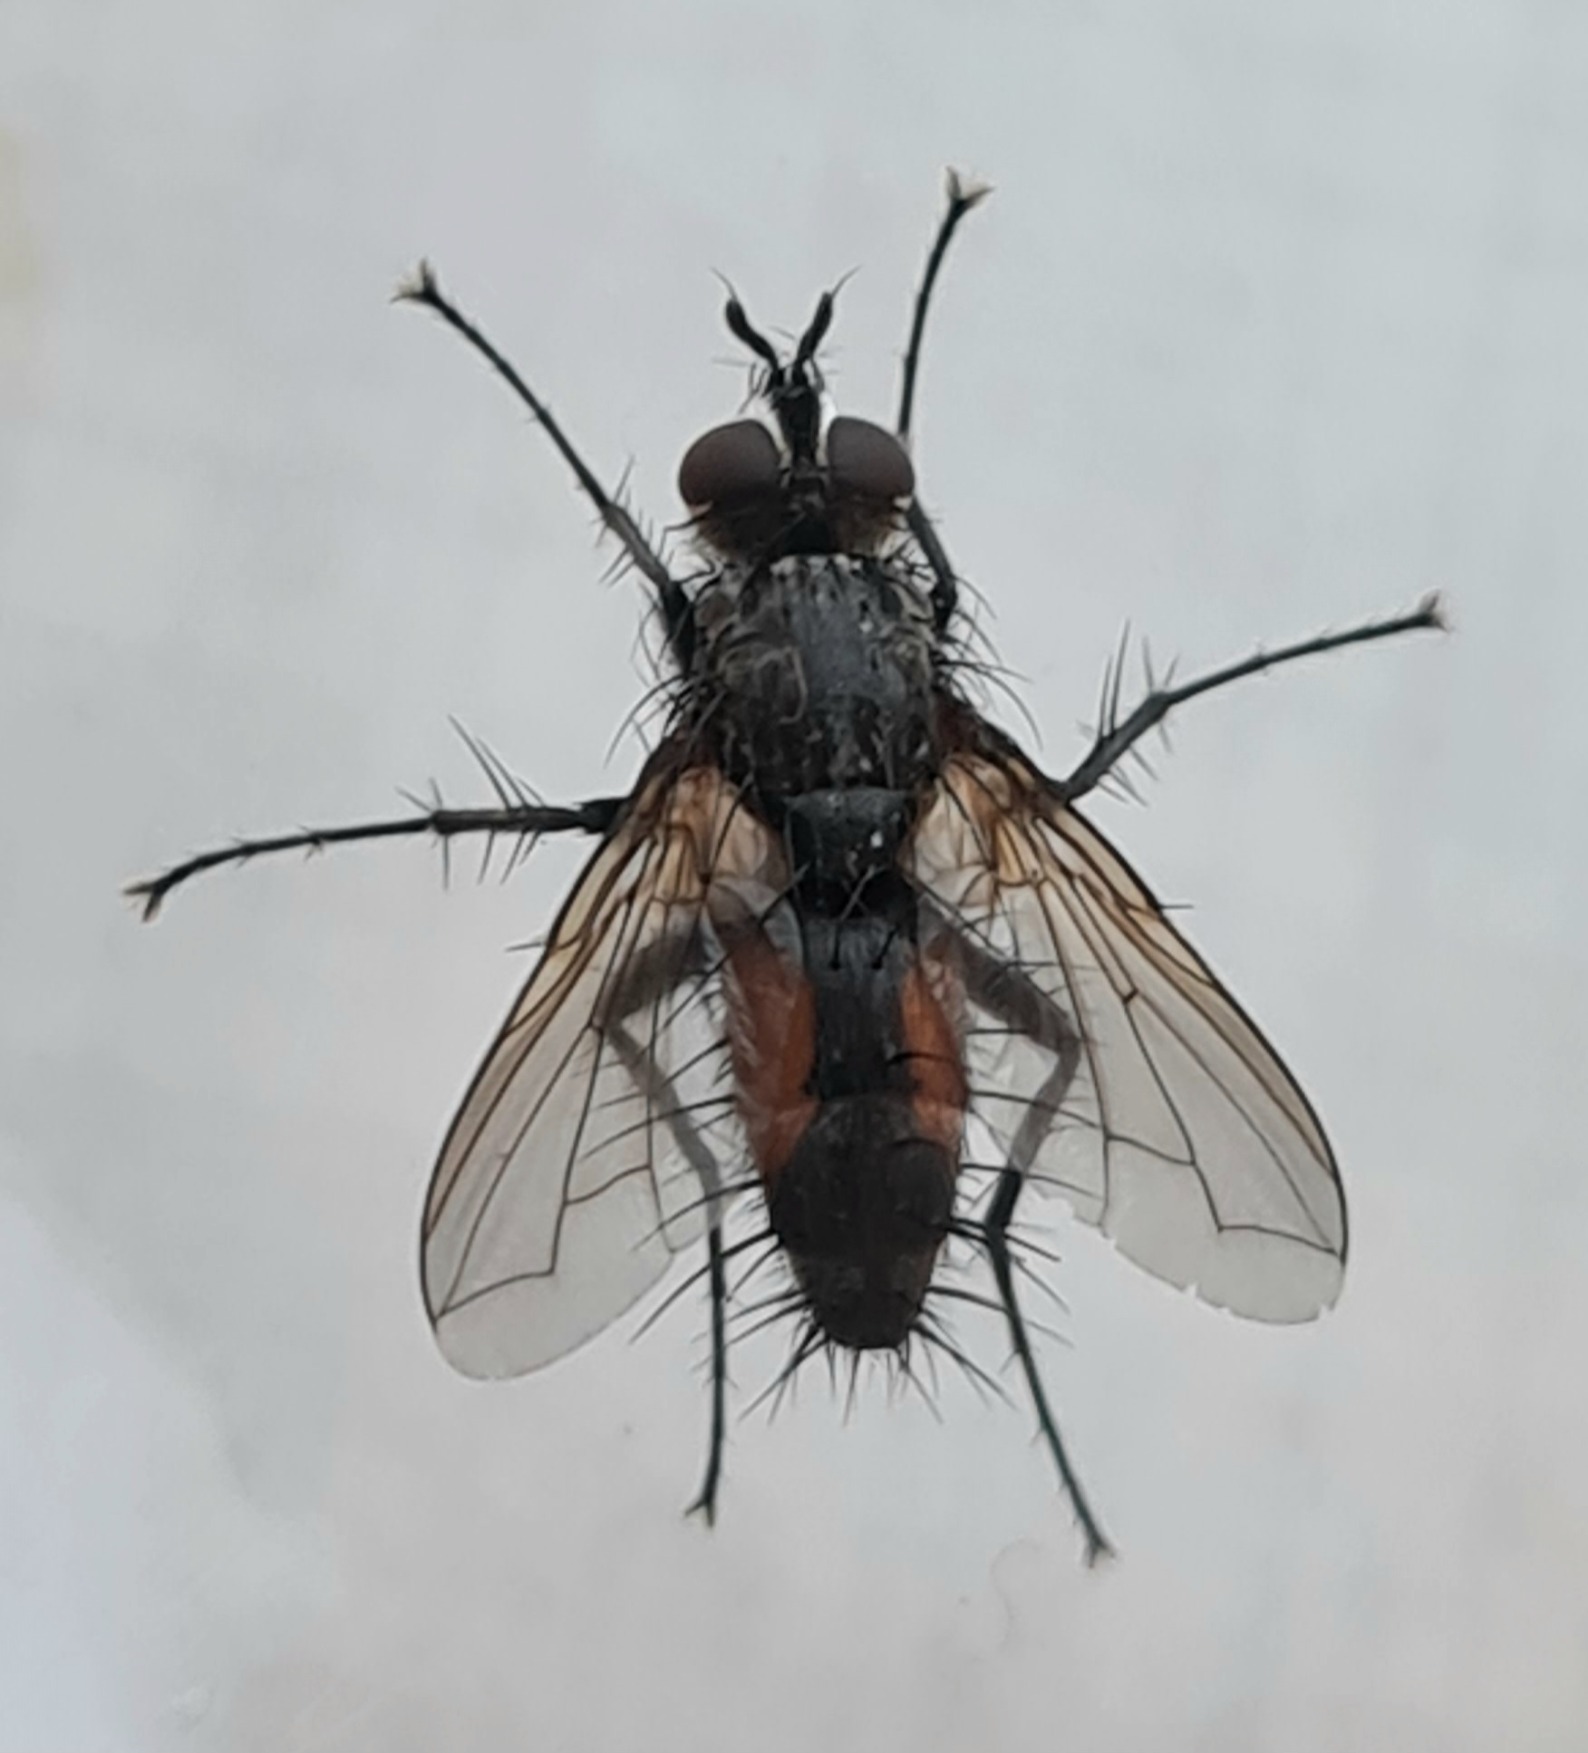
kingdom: Animalia
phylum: Arthropoda
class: Insecta
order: Diptera
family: Tachinidae
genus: Eriothrix
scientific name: Eriothrix rufomaculatus
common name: Rød snylteflue
